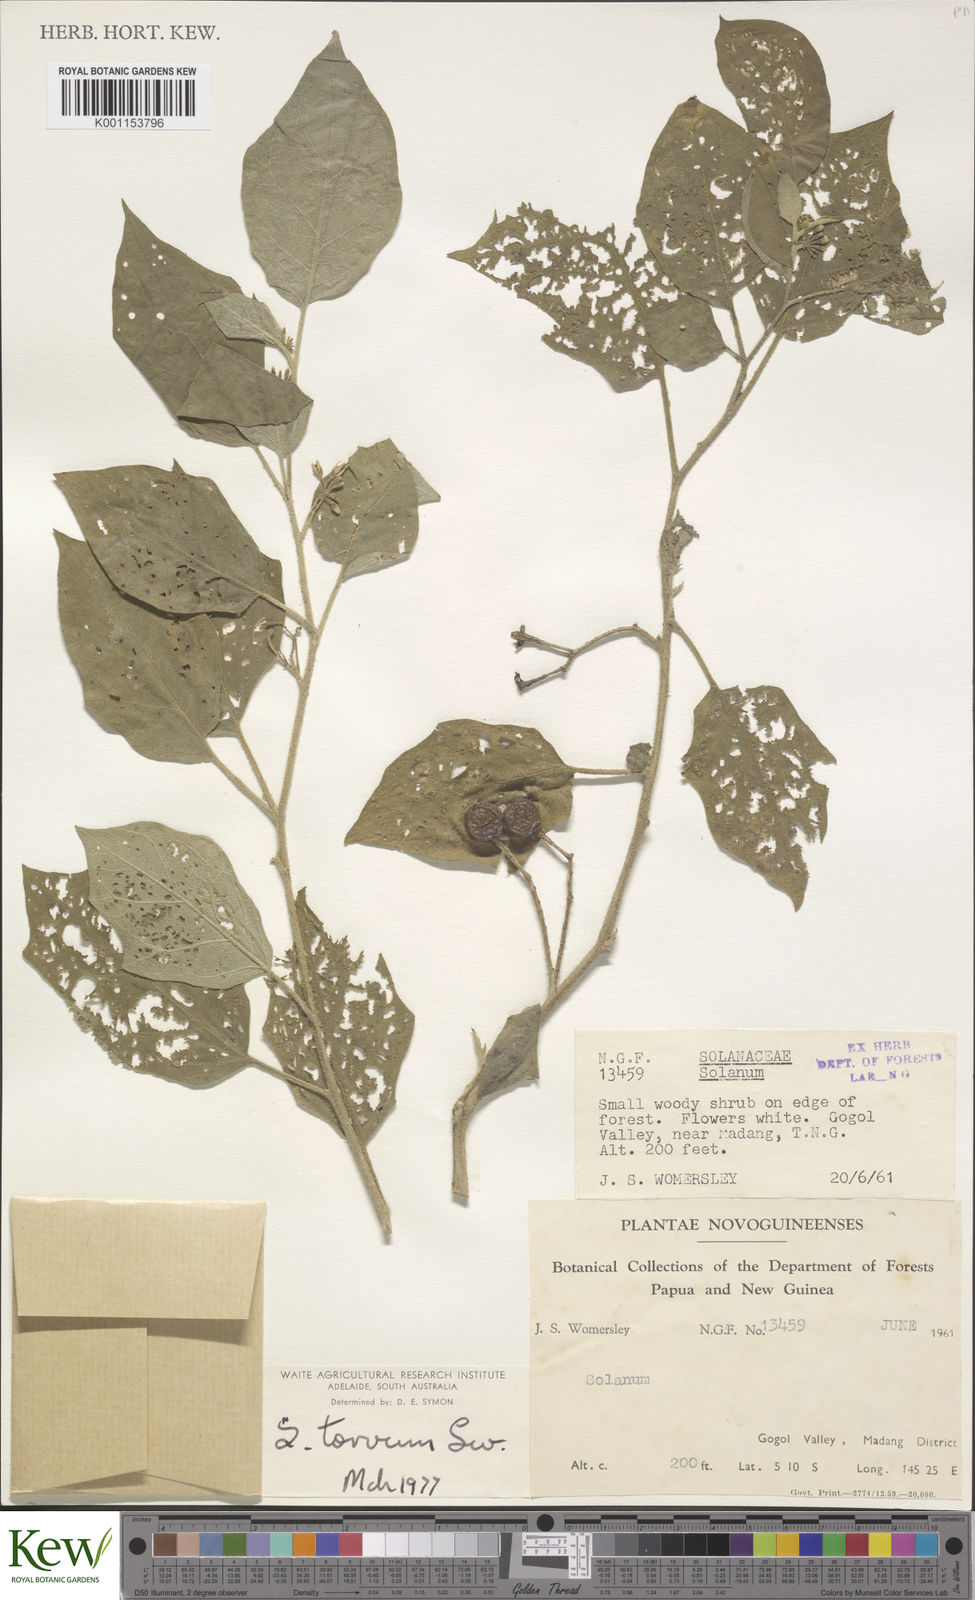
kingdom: Plantae
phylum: Tracheophyta
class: Magnoliopsida
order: Solanales
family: Solanaceae
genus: Solanum
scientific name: Solanum torvum
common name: Turkey berry
